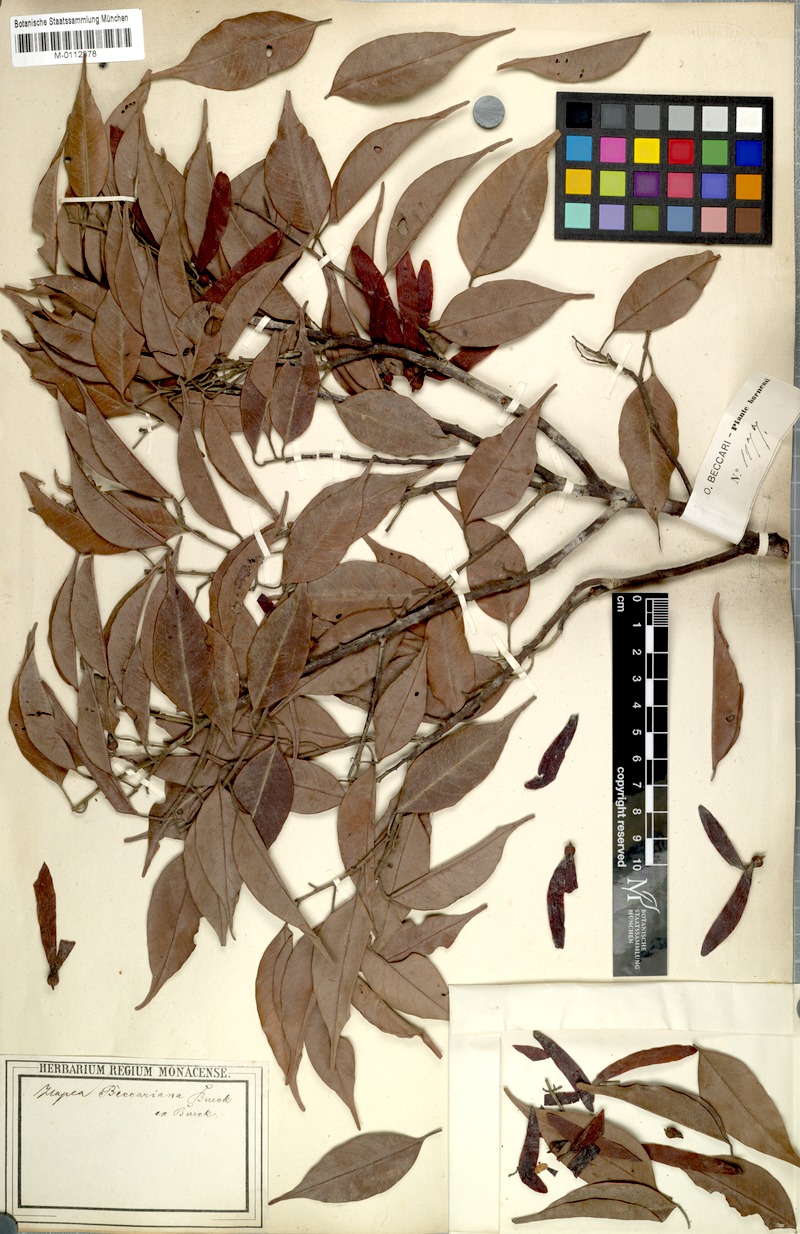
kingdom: Plantae
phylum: Tracheophyta
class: Magnoliopsida
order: Malvales
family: Dipterocarpaceae
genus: Hopea
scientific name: Hopea beccariana
